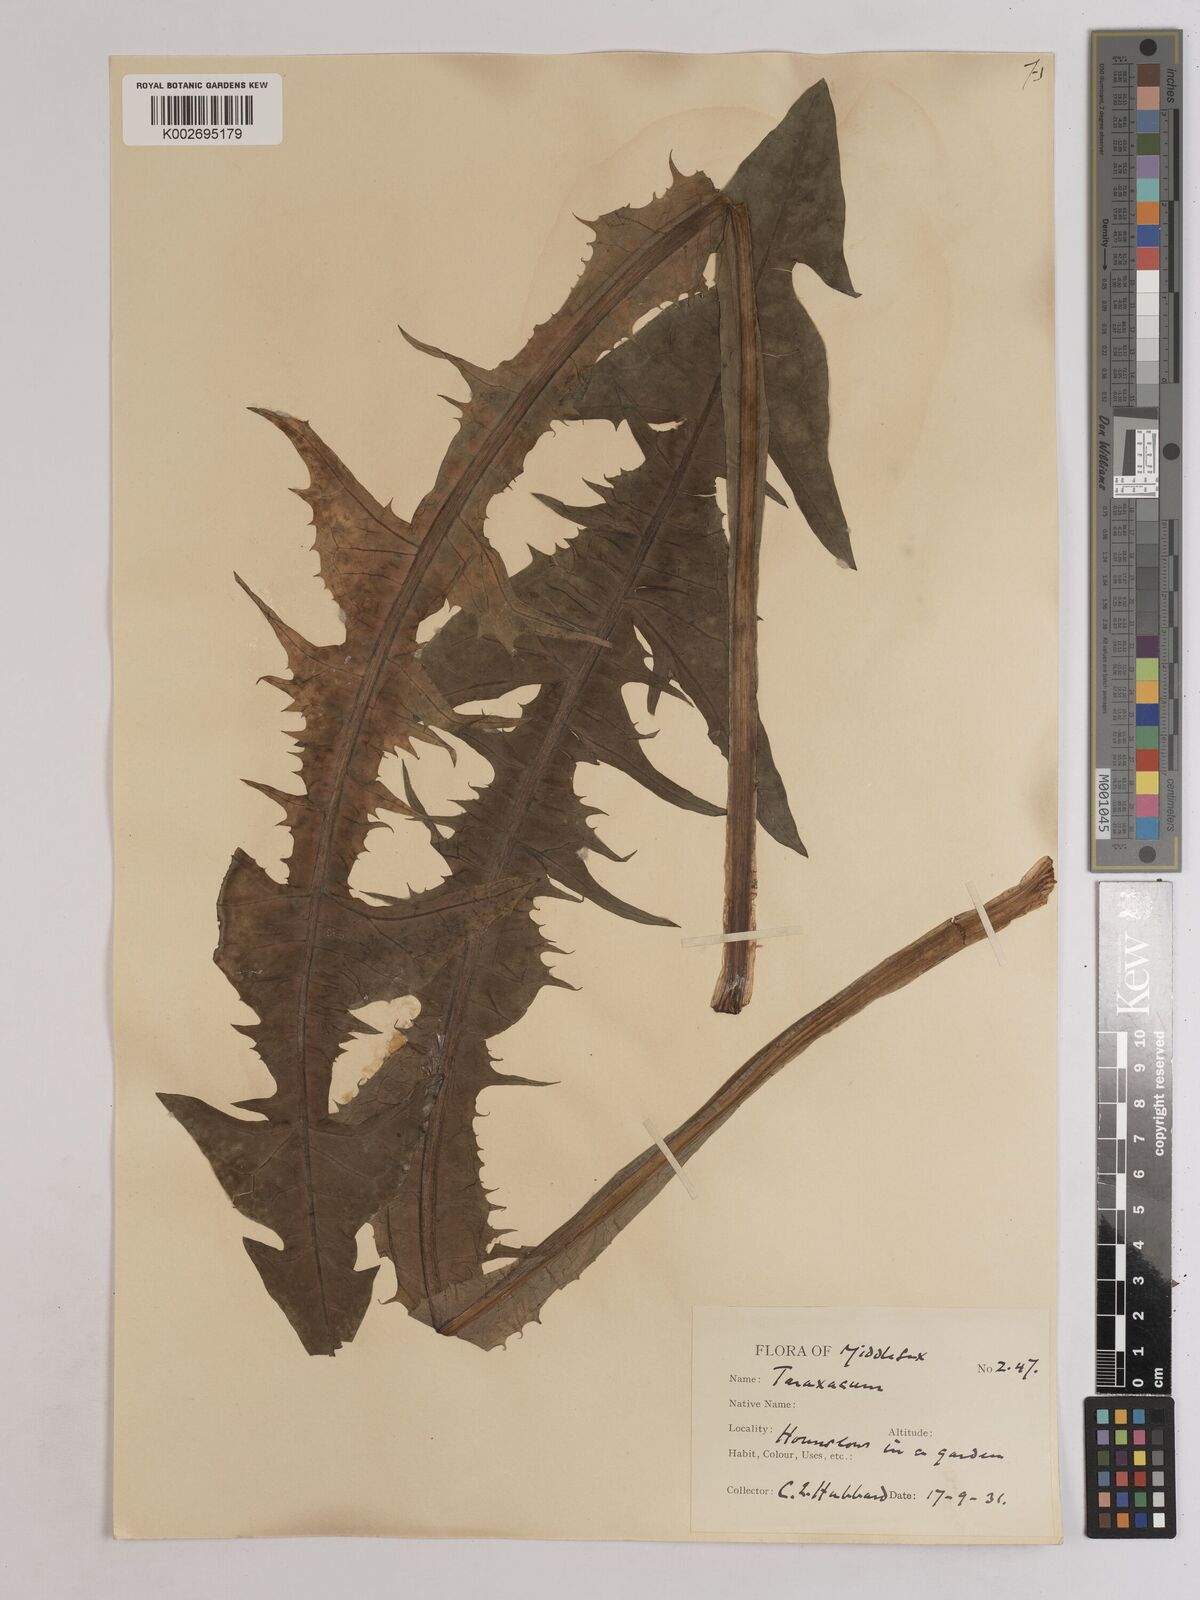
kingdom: Plantae
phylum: Tracheophyta
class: Magnoliopsida
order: Asterales
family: Asteraceae
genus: Taraxacum
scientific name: Taraxacum officinale
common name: Common dandelion
